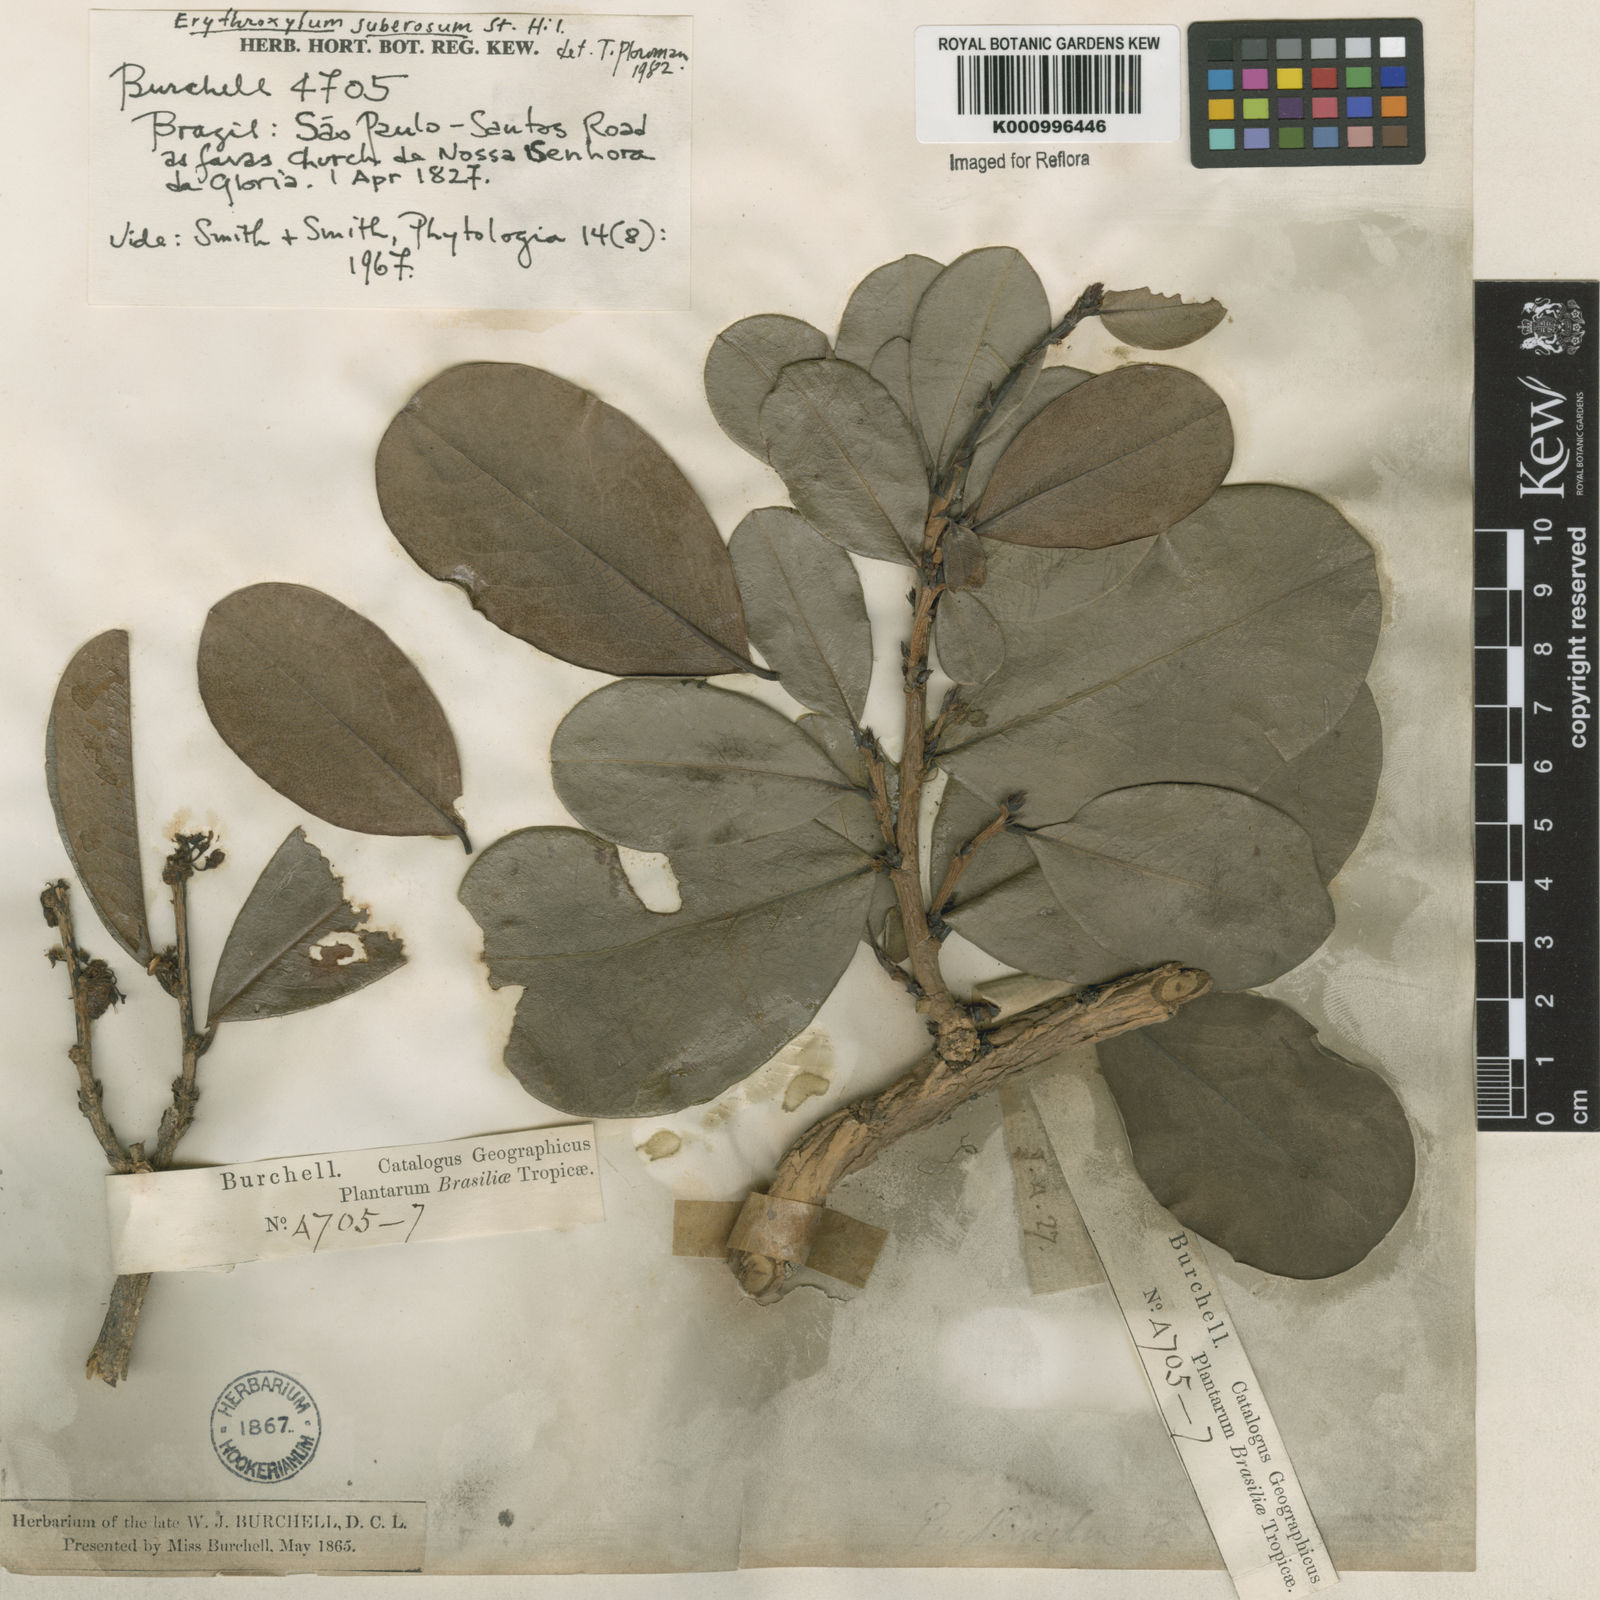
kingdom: Plantae
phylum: Tracheophyta
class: Magnoliopsida
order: Malpighiales
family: Erythroxylaceae
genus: Erythroxylum
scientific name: Erythroxylum suberosum
